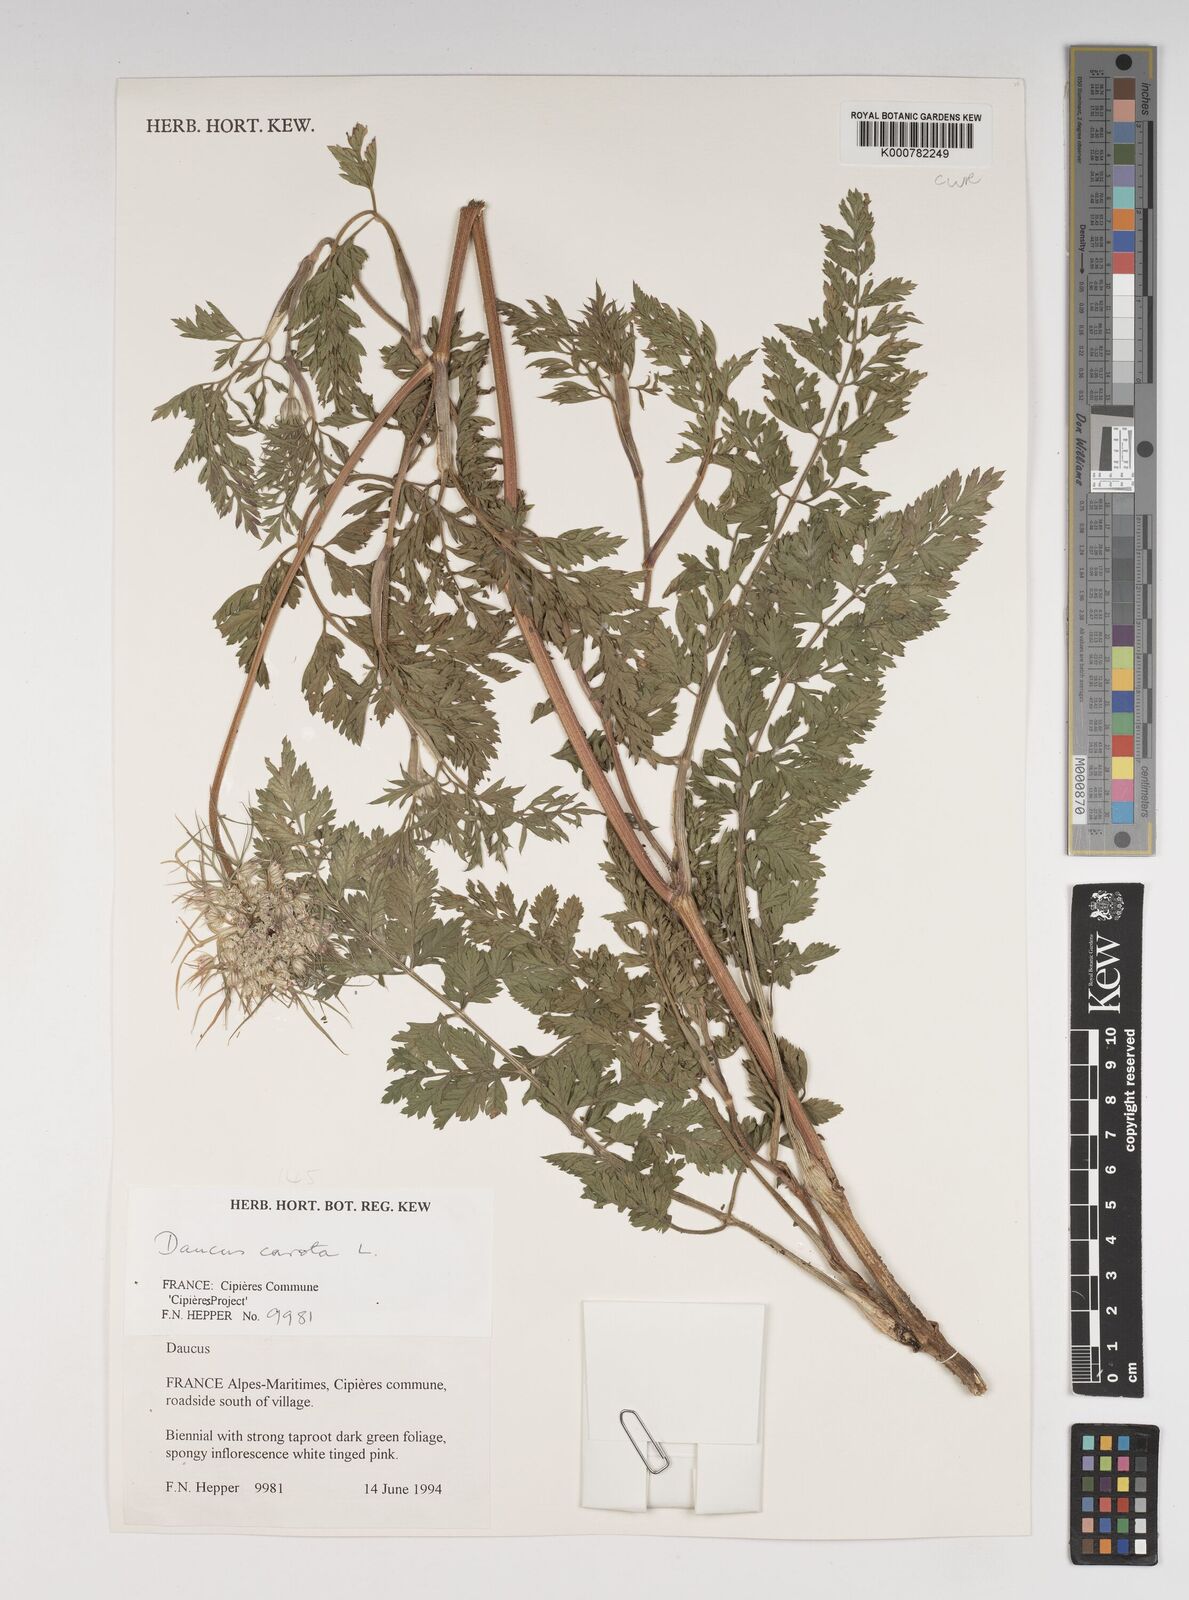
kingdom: Plantae
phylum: Tracheophyta
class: Magnoliopsida
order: Apiales
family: Apiaceae
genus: Daucus
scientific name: Daucus carota
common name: Wild carrot
